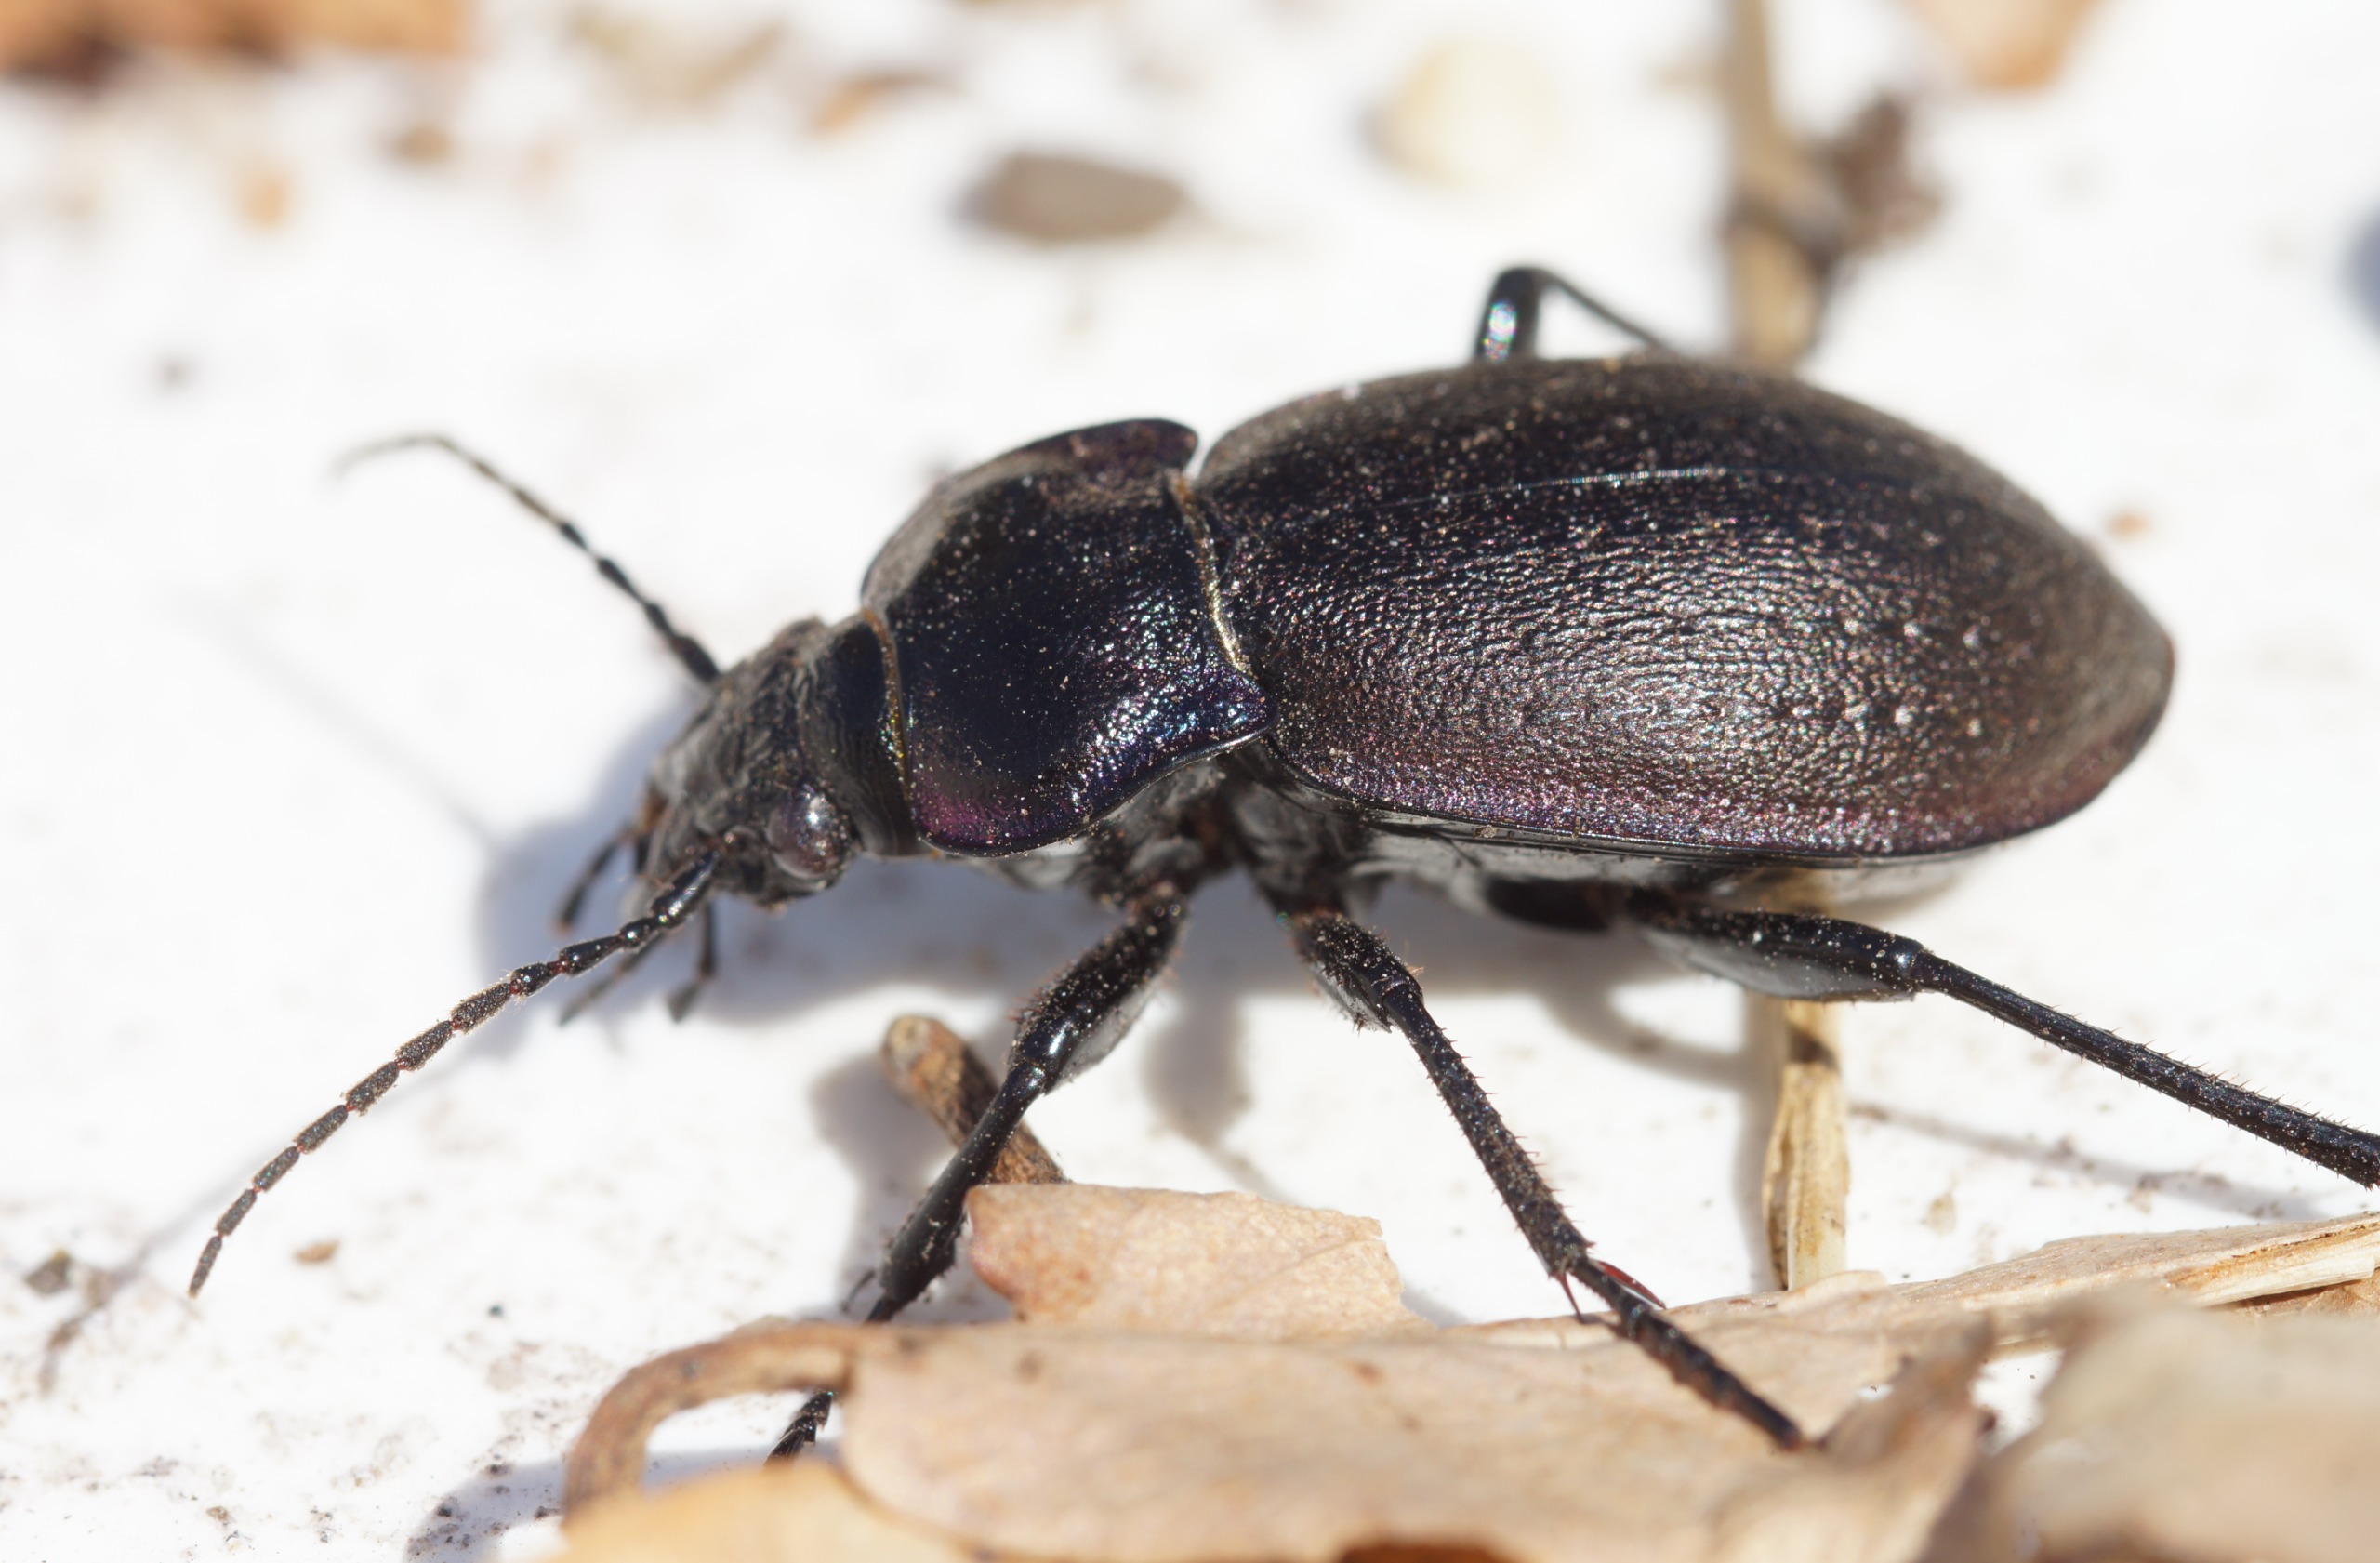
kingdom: Animalia
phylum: Arthropoda
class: Insecta
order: Coleoptera
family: Carabidae
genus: Carabus
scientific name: Carabus nemoralis
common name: Kratløber
